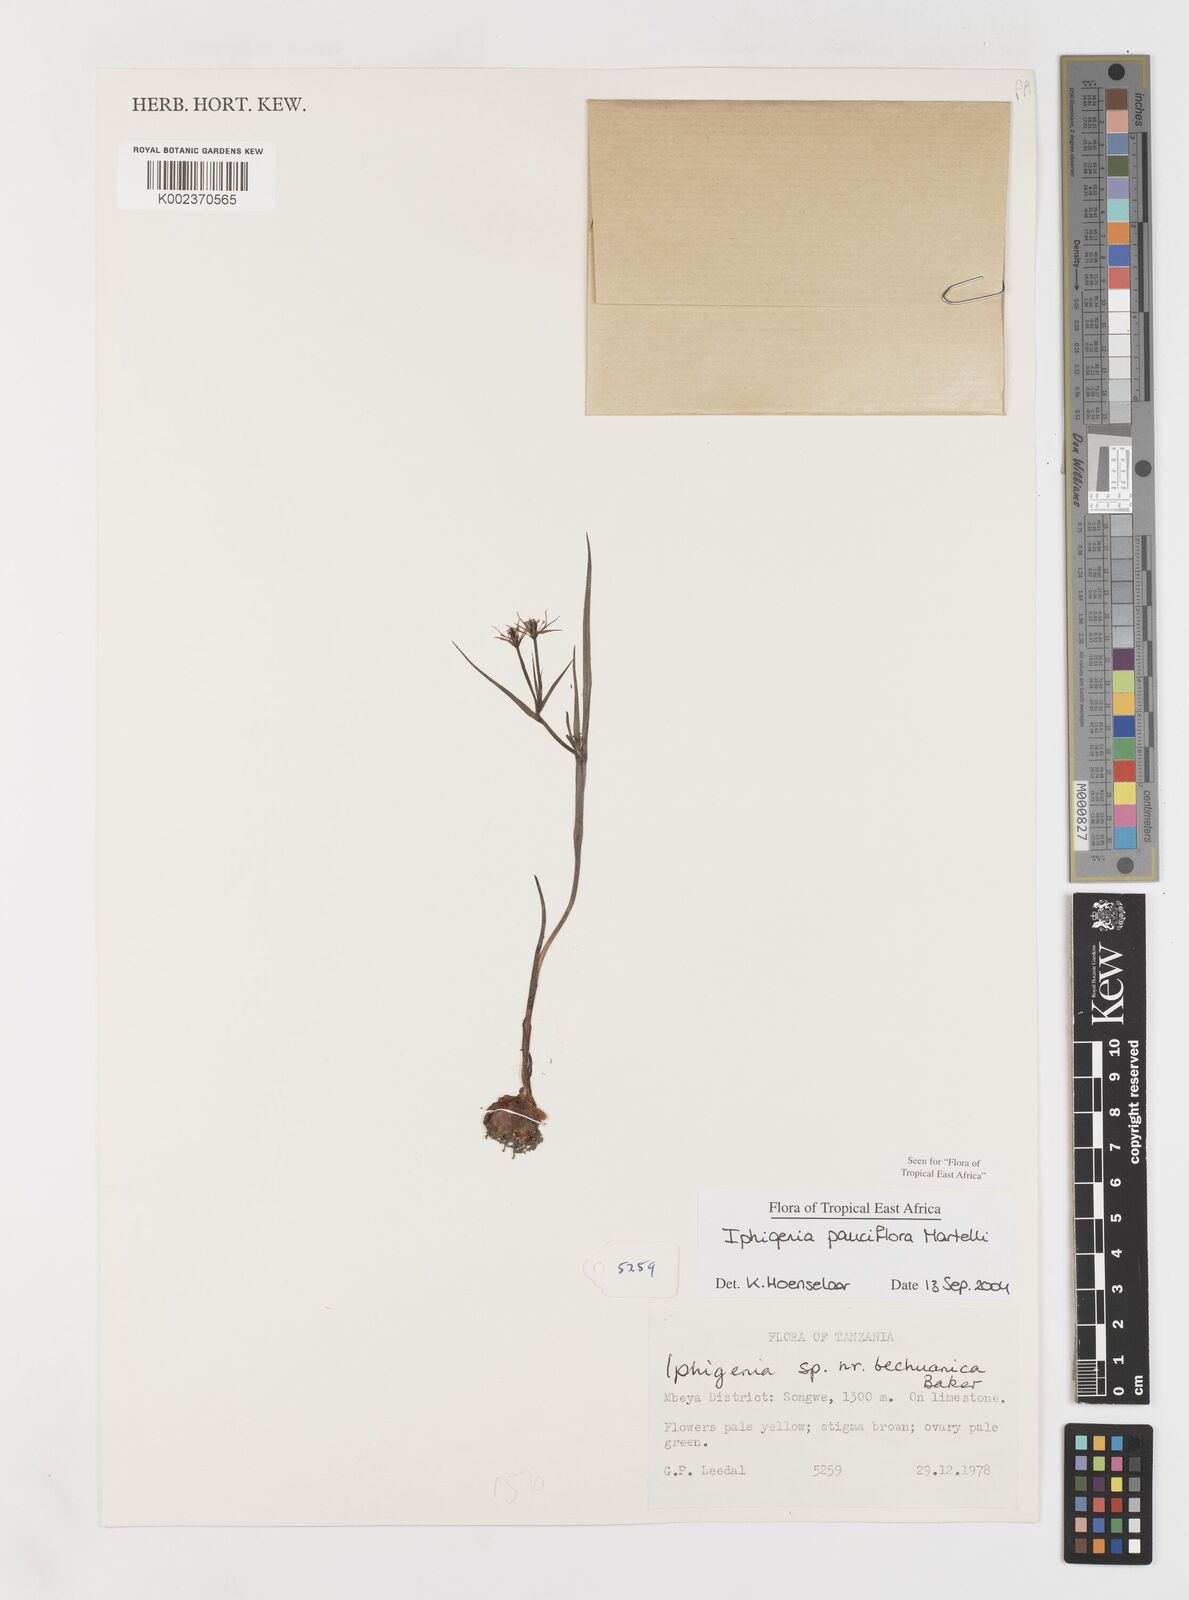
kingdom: Plantae
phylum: Tracheophyta
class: Liliopsida
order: Liliales
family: Colchicaceae
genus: Iphigenia
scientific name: Iphigenia pauciflora
